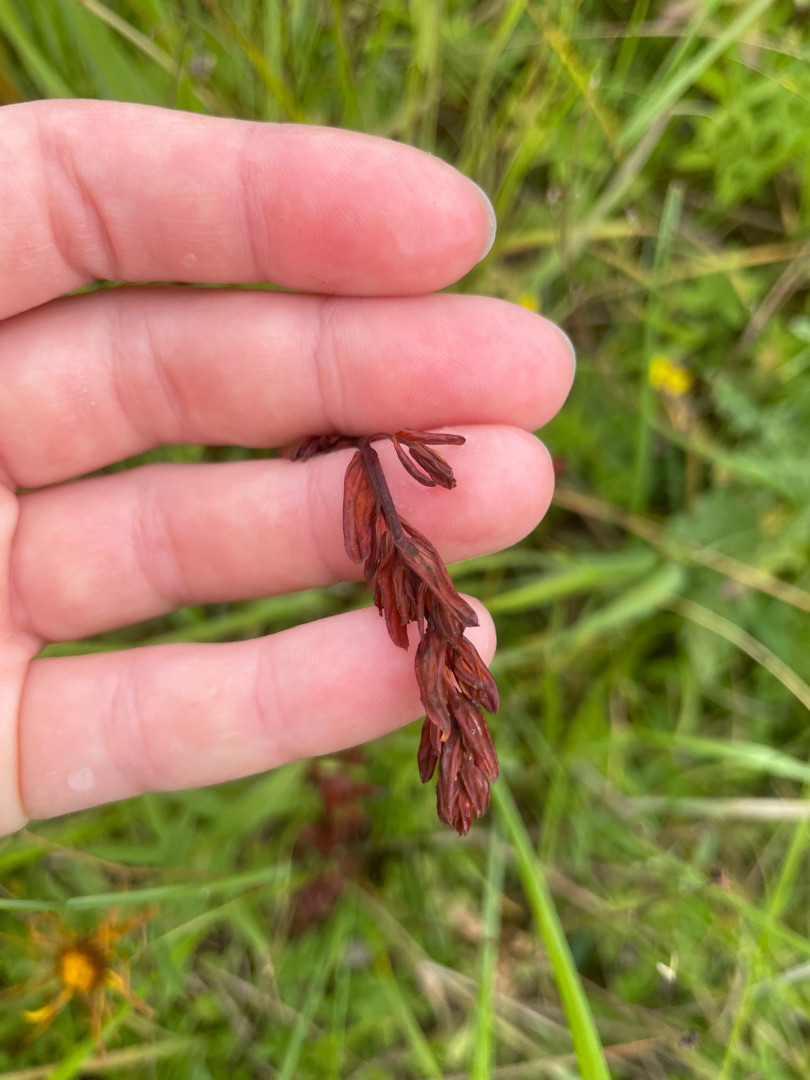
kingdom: Plantae
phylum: Tracheophyta
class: Magnoliopsida
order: Malpighiales
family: Hypericaceae
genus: Hypericum
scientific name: Hypericum maculatum
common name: Kantet perikon
